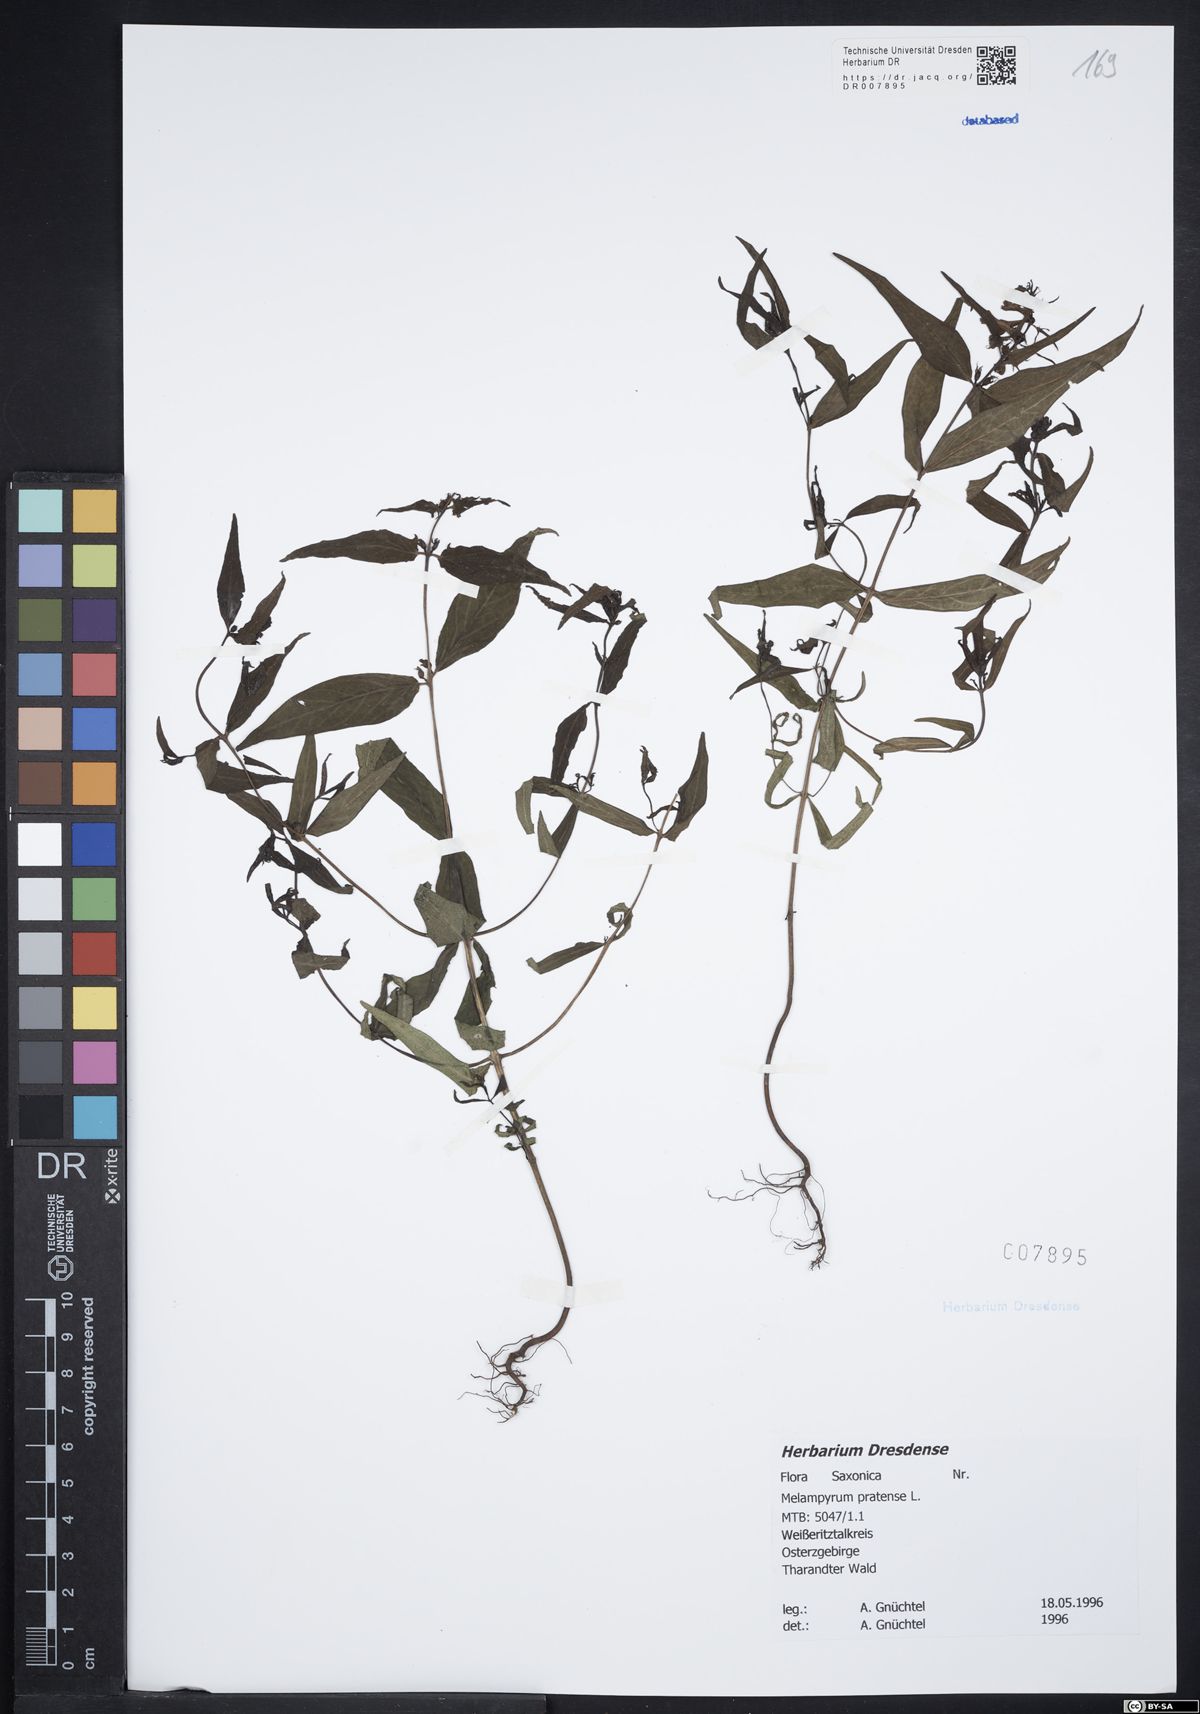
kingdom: Plantae
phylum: Tracheophyta
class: Magnoliopsida
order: Lamiales
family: Orobanchaceae
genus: Melampyrum
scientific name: Melampyrum pratense
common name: Common cow-wheat
